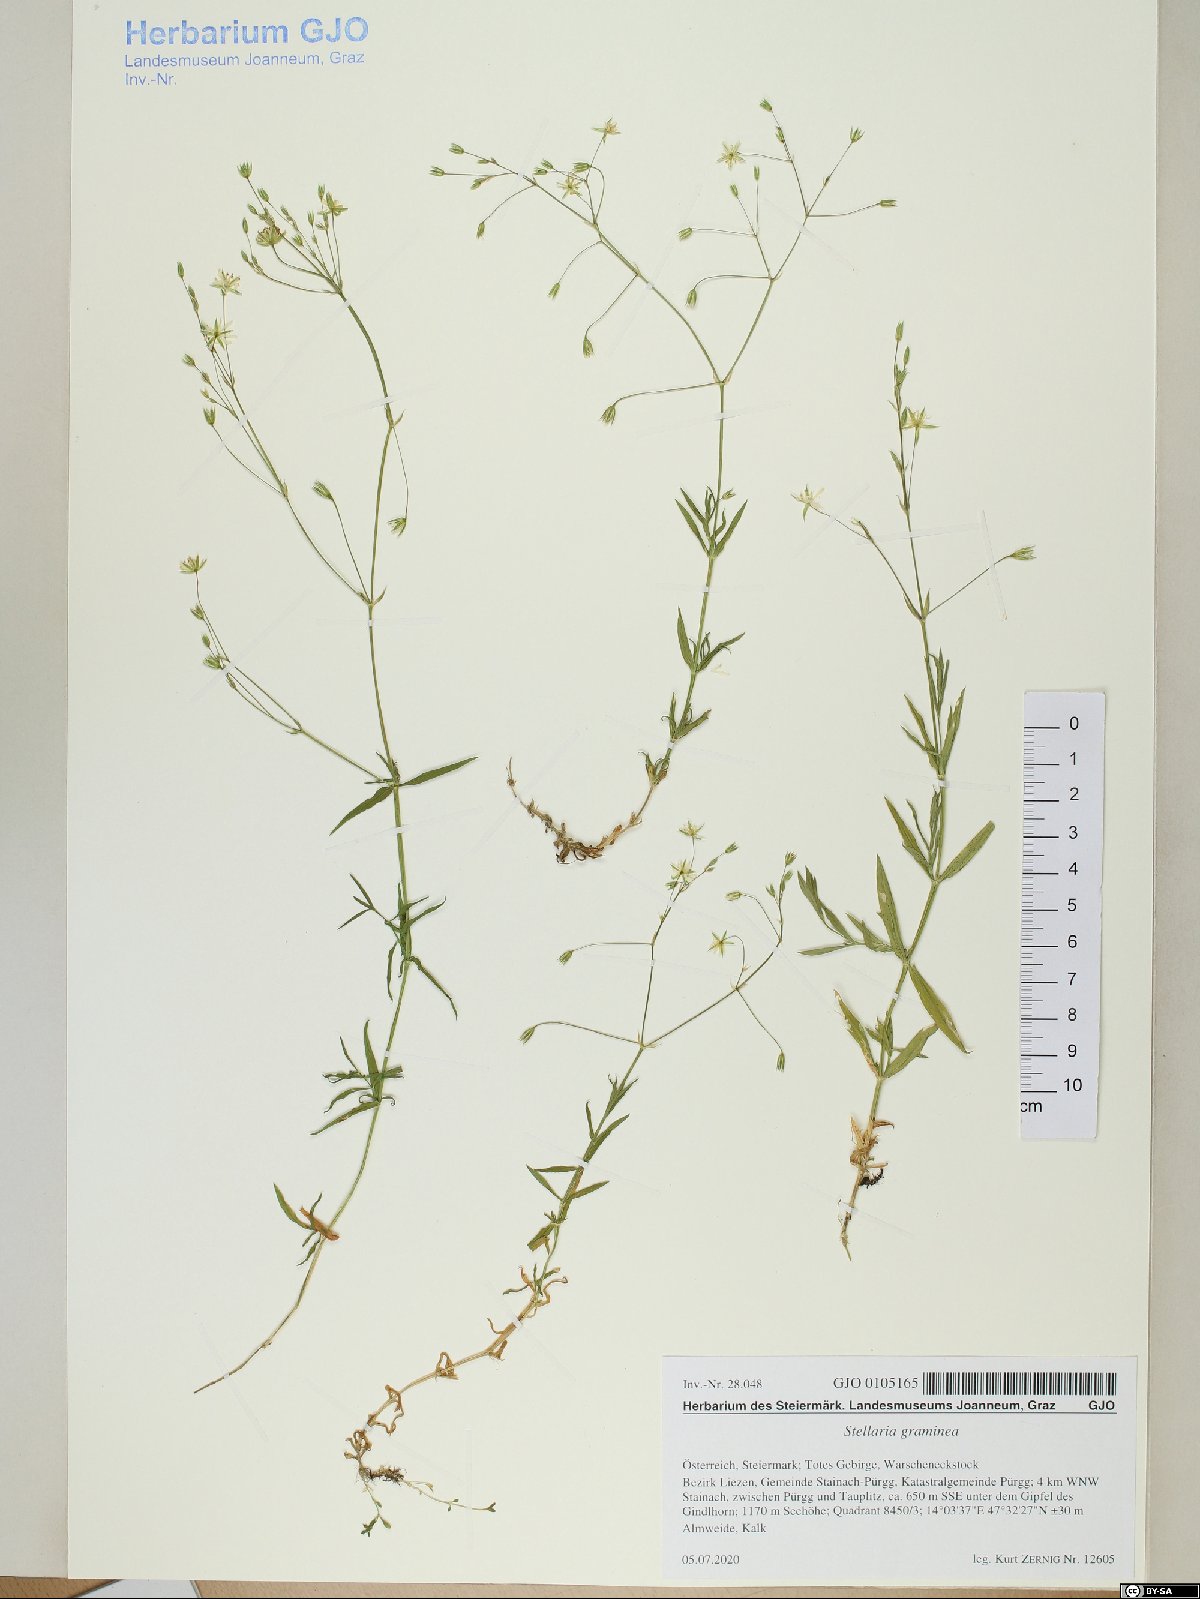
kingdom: Plantae
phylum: Tracheophyta
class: Magnoliopsida
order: Caryophyllales
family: Caryophyllaceae
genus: Stellaria
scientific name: Stellaria graminea
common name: Grass-like starwort
